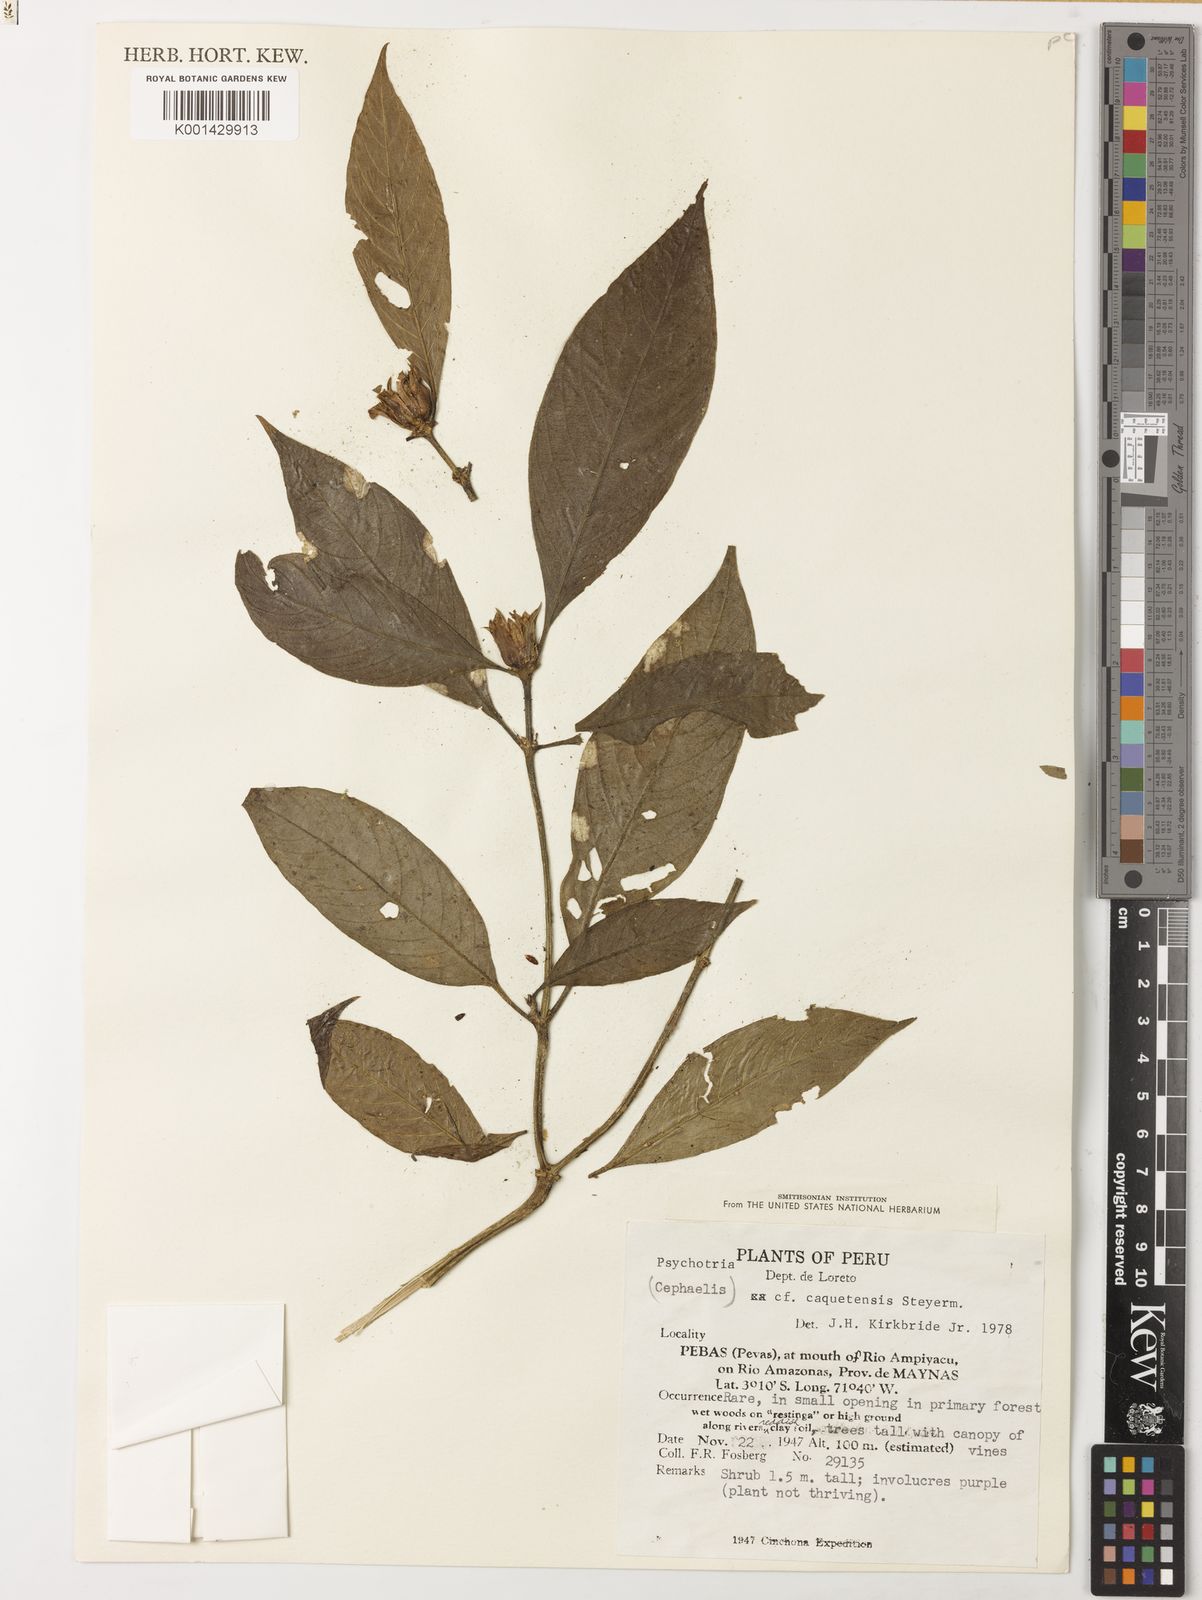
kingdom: Plantae
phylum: Tracheophyta
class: Magnoliopsida
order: Gentianales
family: Rubiaceae
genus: Palicourea
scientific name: Palicourea caquetensis
